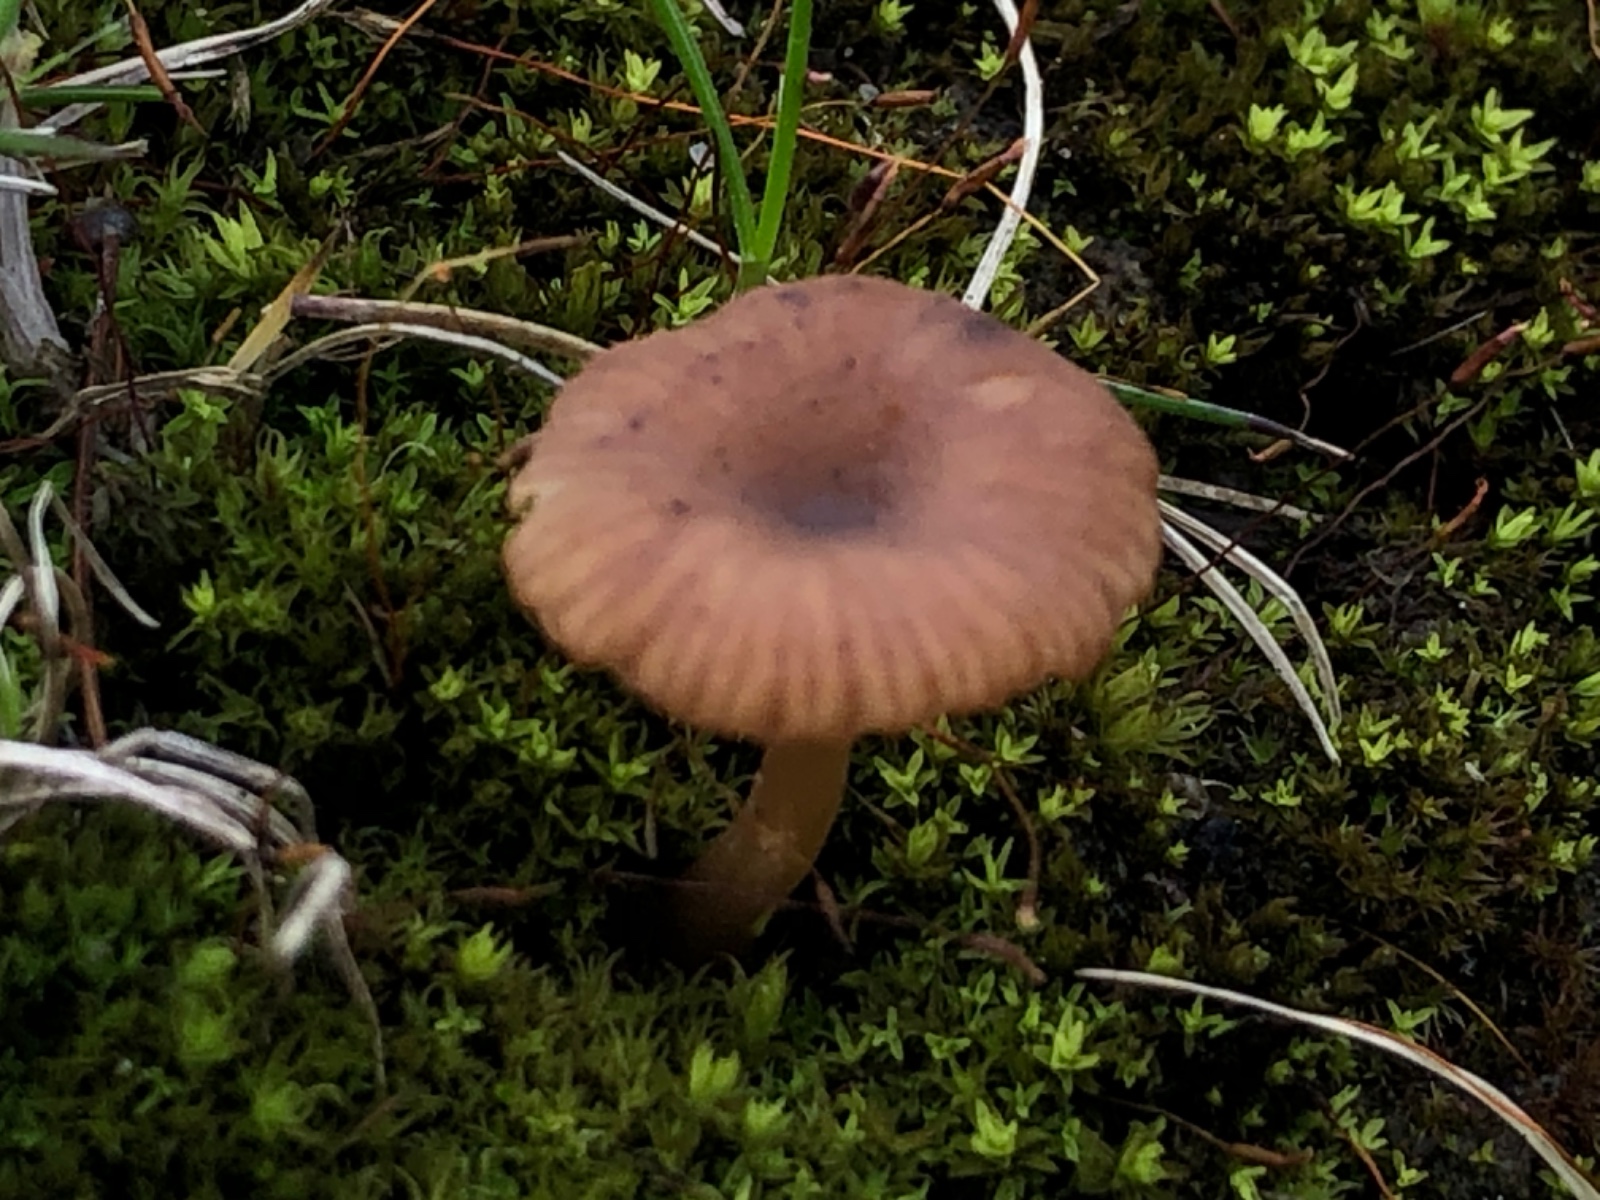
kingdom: Fungi
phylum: Basidiomycota
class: Agaricomycetes
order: Agaricales
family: Tricholomataceae
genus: Omphalina
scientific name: Omphalina pyxidata
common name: rødbrun navlehat
